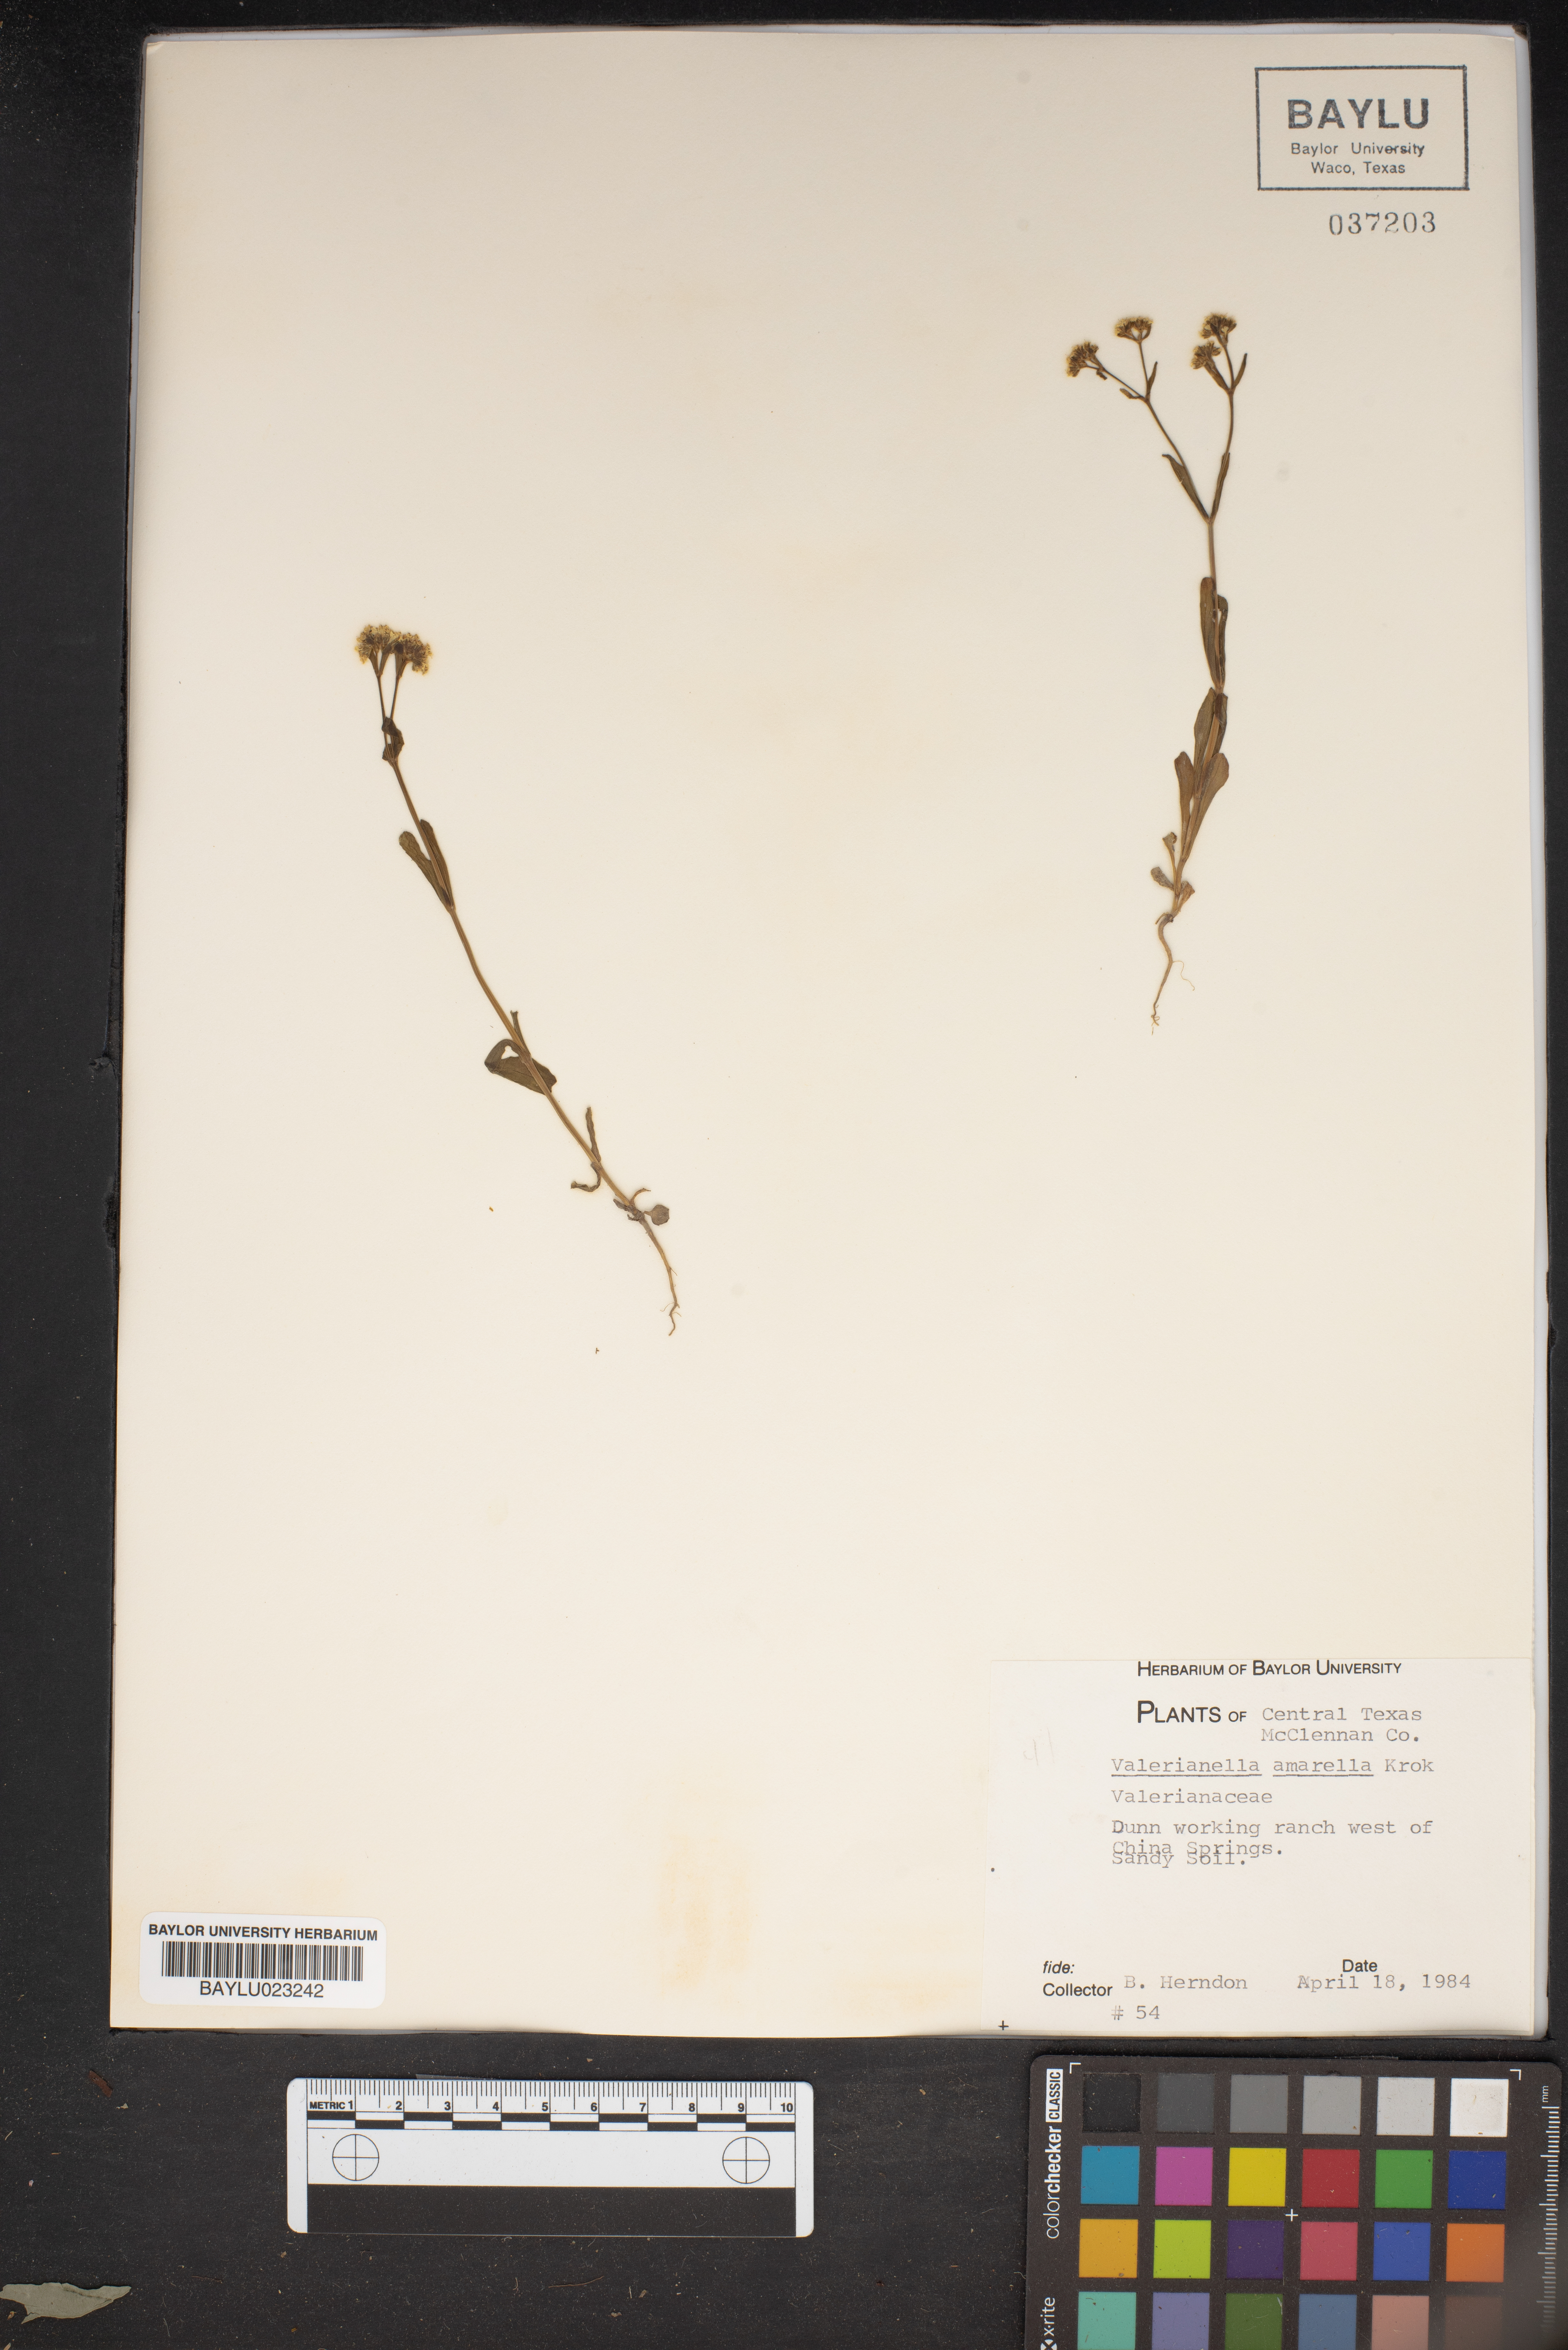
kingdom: Plantae
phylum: Tracheophyta
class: Magnoliopsida
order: Dipsacales
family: Caprifoliaceae
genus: Valerianella
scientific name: Valerianella amarella
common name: Hariy cornsalad
